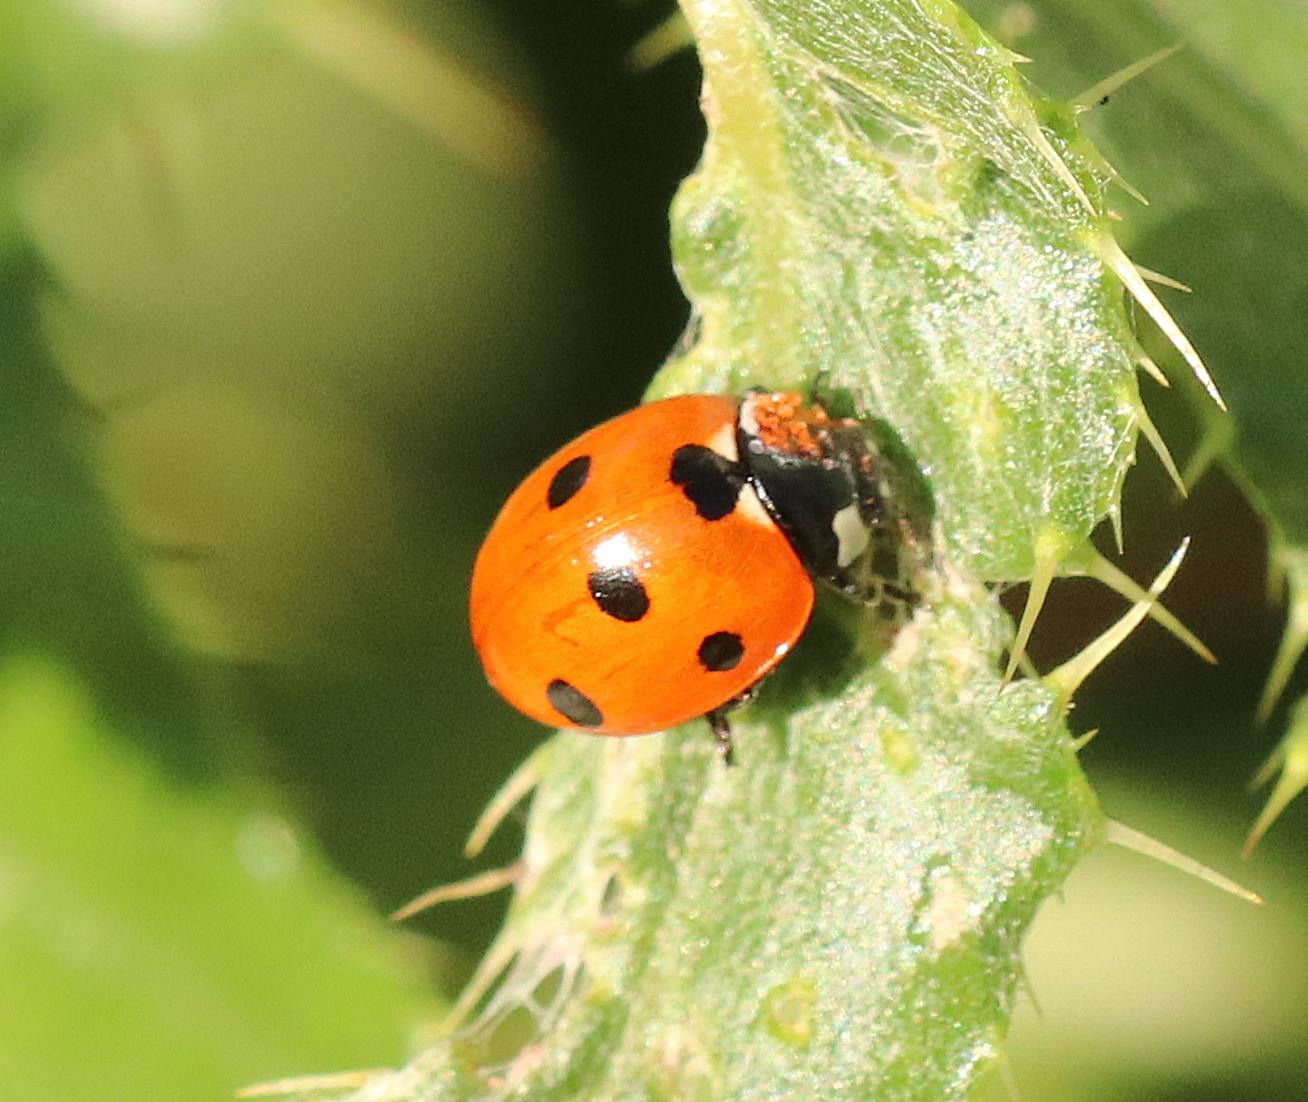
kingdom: Animalia
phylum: Arthropoda
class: Insecta
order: Coleoptera
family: Coccinellidae
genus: Coccinella
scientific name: Coccinella septempunctata
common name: Syvplettet mariehøne
